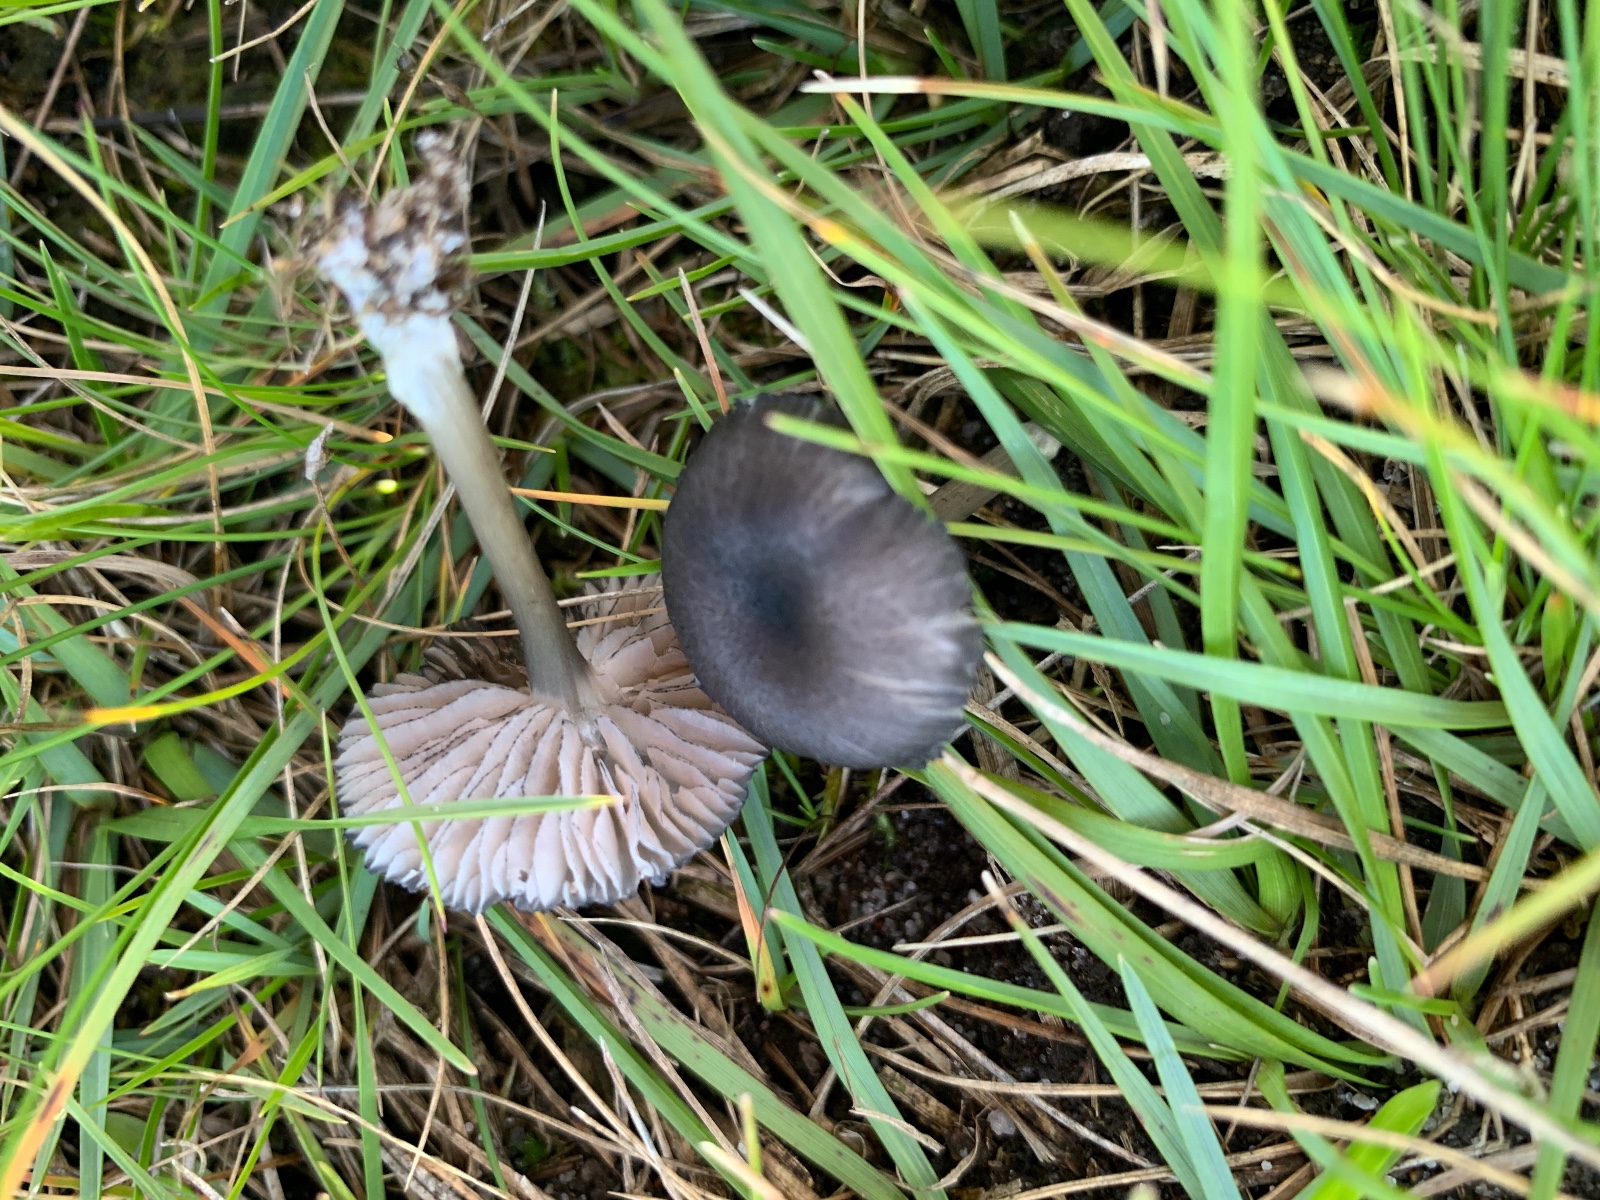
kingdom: Fungi
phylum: Basidiomycota
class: Agaricomycetes
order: Agaricales
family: Entolomataceae
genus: Entoloma
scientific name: Entoloma
